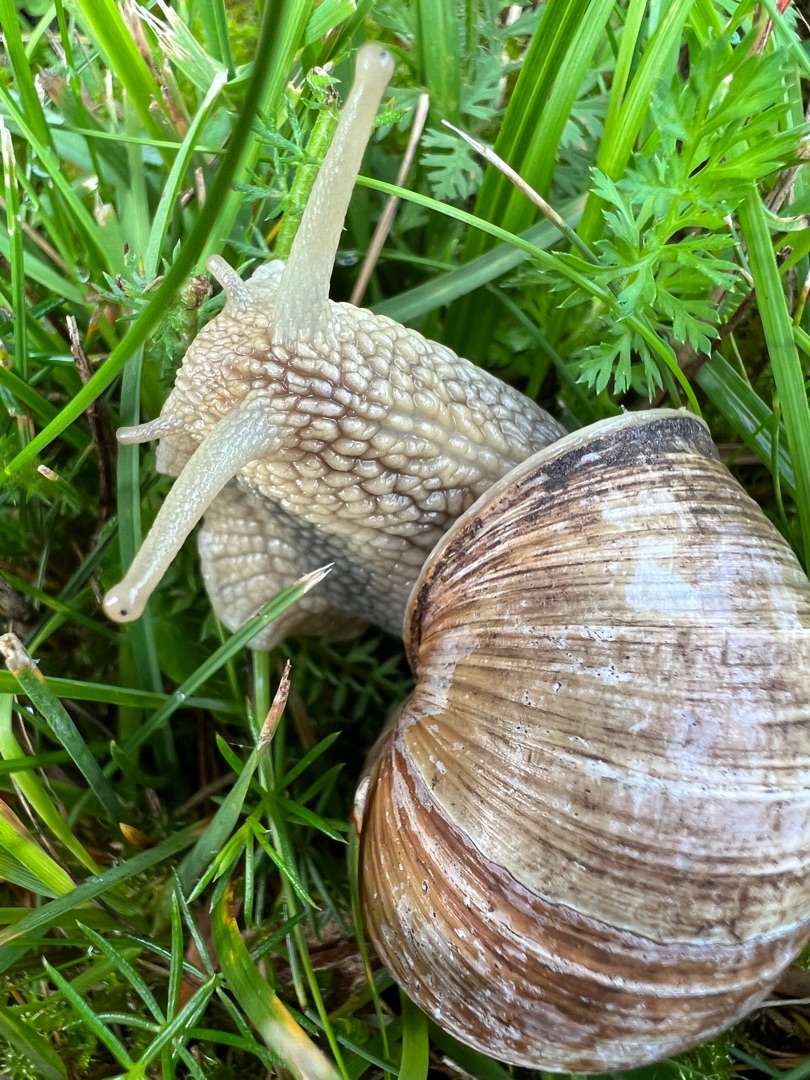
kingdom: Animalia
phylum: Mollusca
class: Gastropoda
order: Stylommatophora
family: Helicidae
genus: Helix
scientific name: Helix pomatia
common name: Vinbjergsnegl
